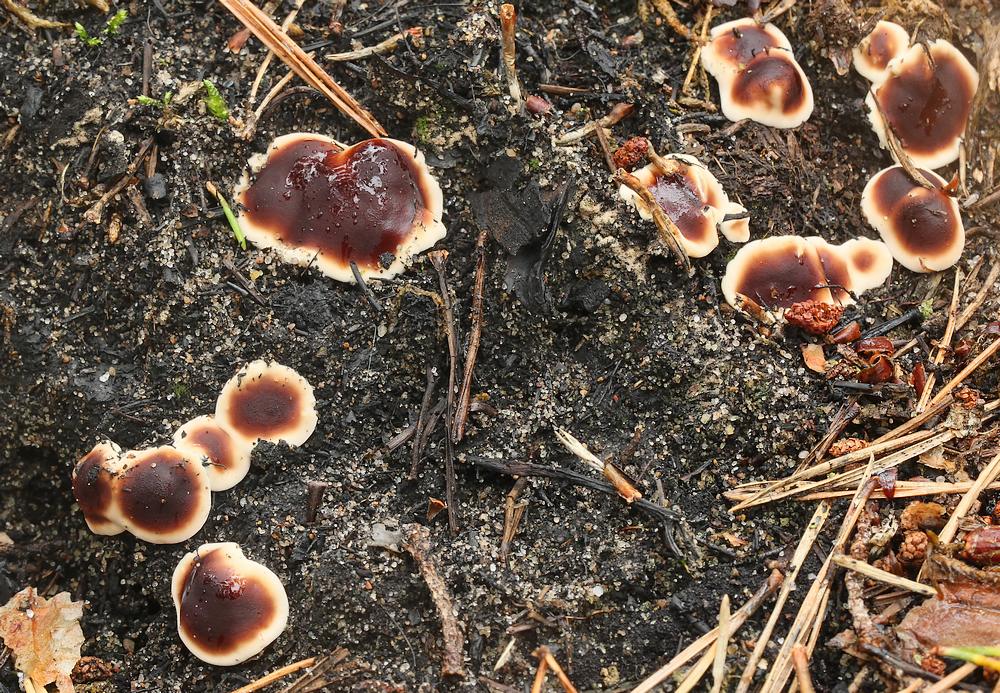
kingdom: Fungi
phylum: Ascomycota
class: Pezizomycetes
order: Pezizales
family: Rhizinaceae
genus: Rhizina
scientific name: Rhizina undulata
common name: rodmorkel
